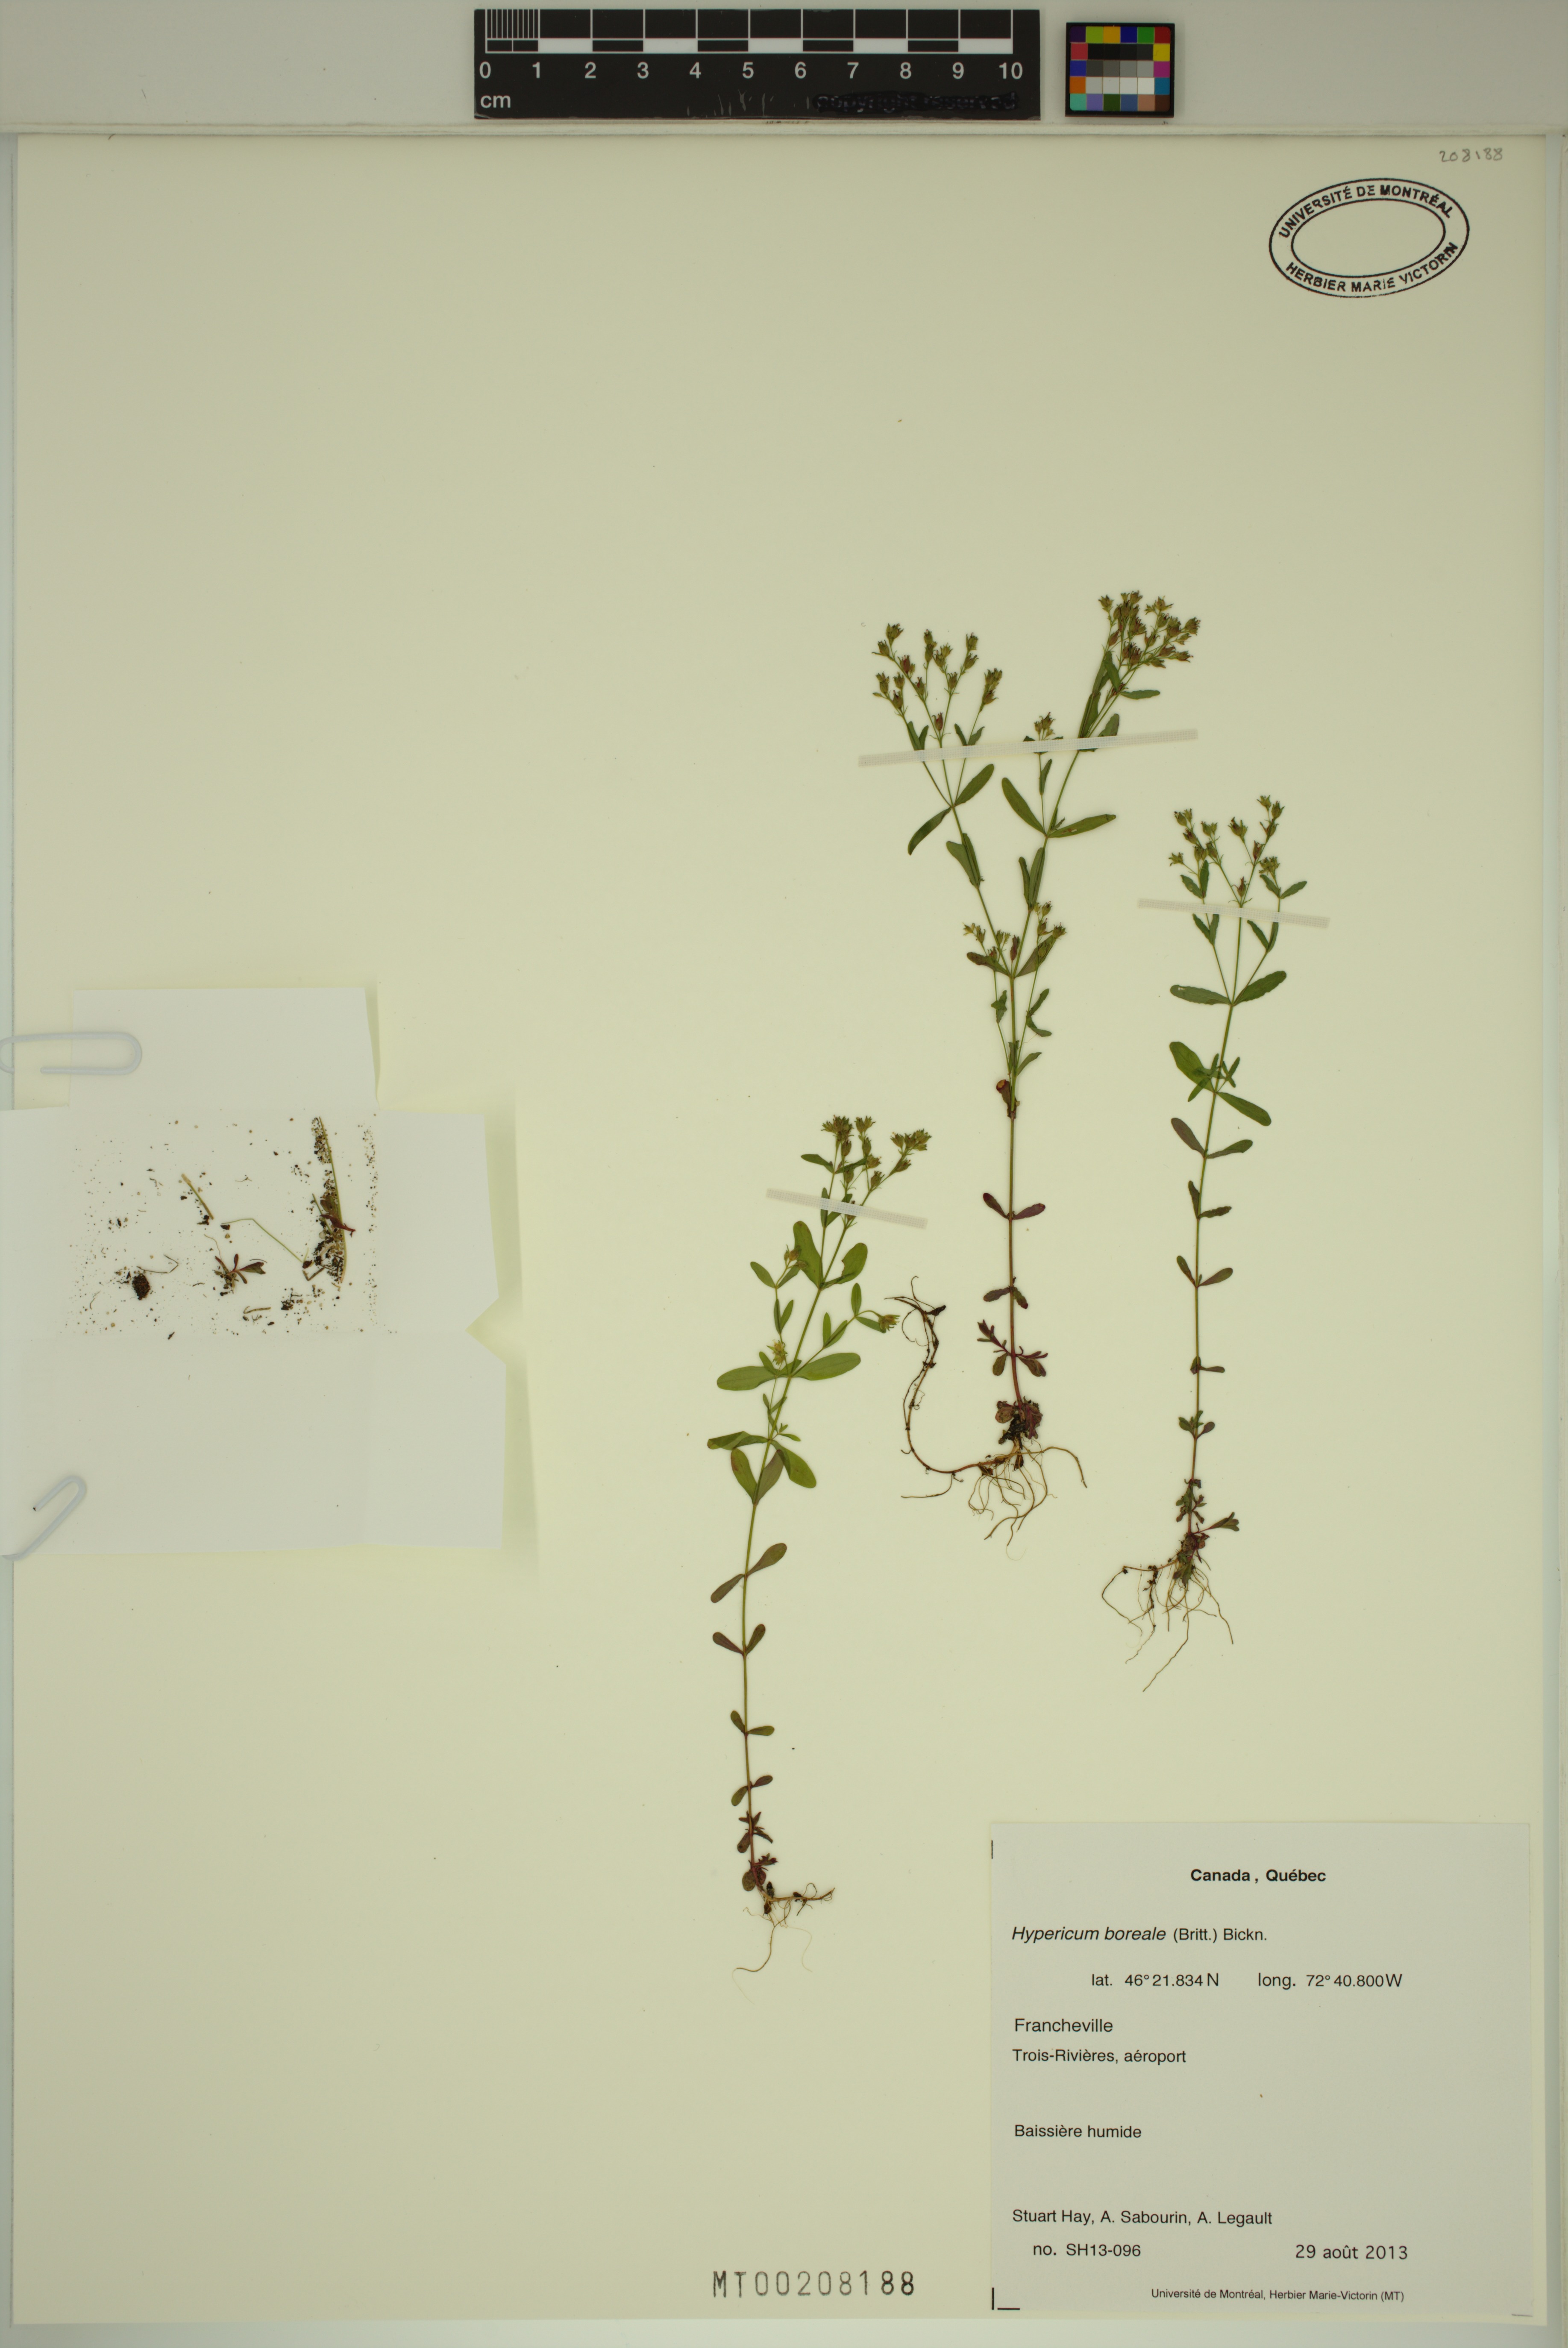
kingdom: Plantae
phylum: Tracheophyta
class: Magnoliopsida
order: Malpighiales
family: Hypericaceae
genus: Hypericum
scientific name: Hypericum boreale
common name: Northern bog st. john's-wort
